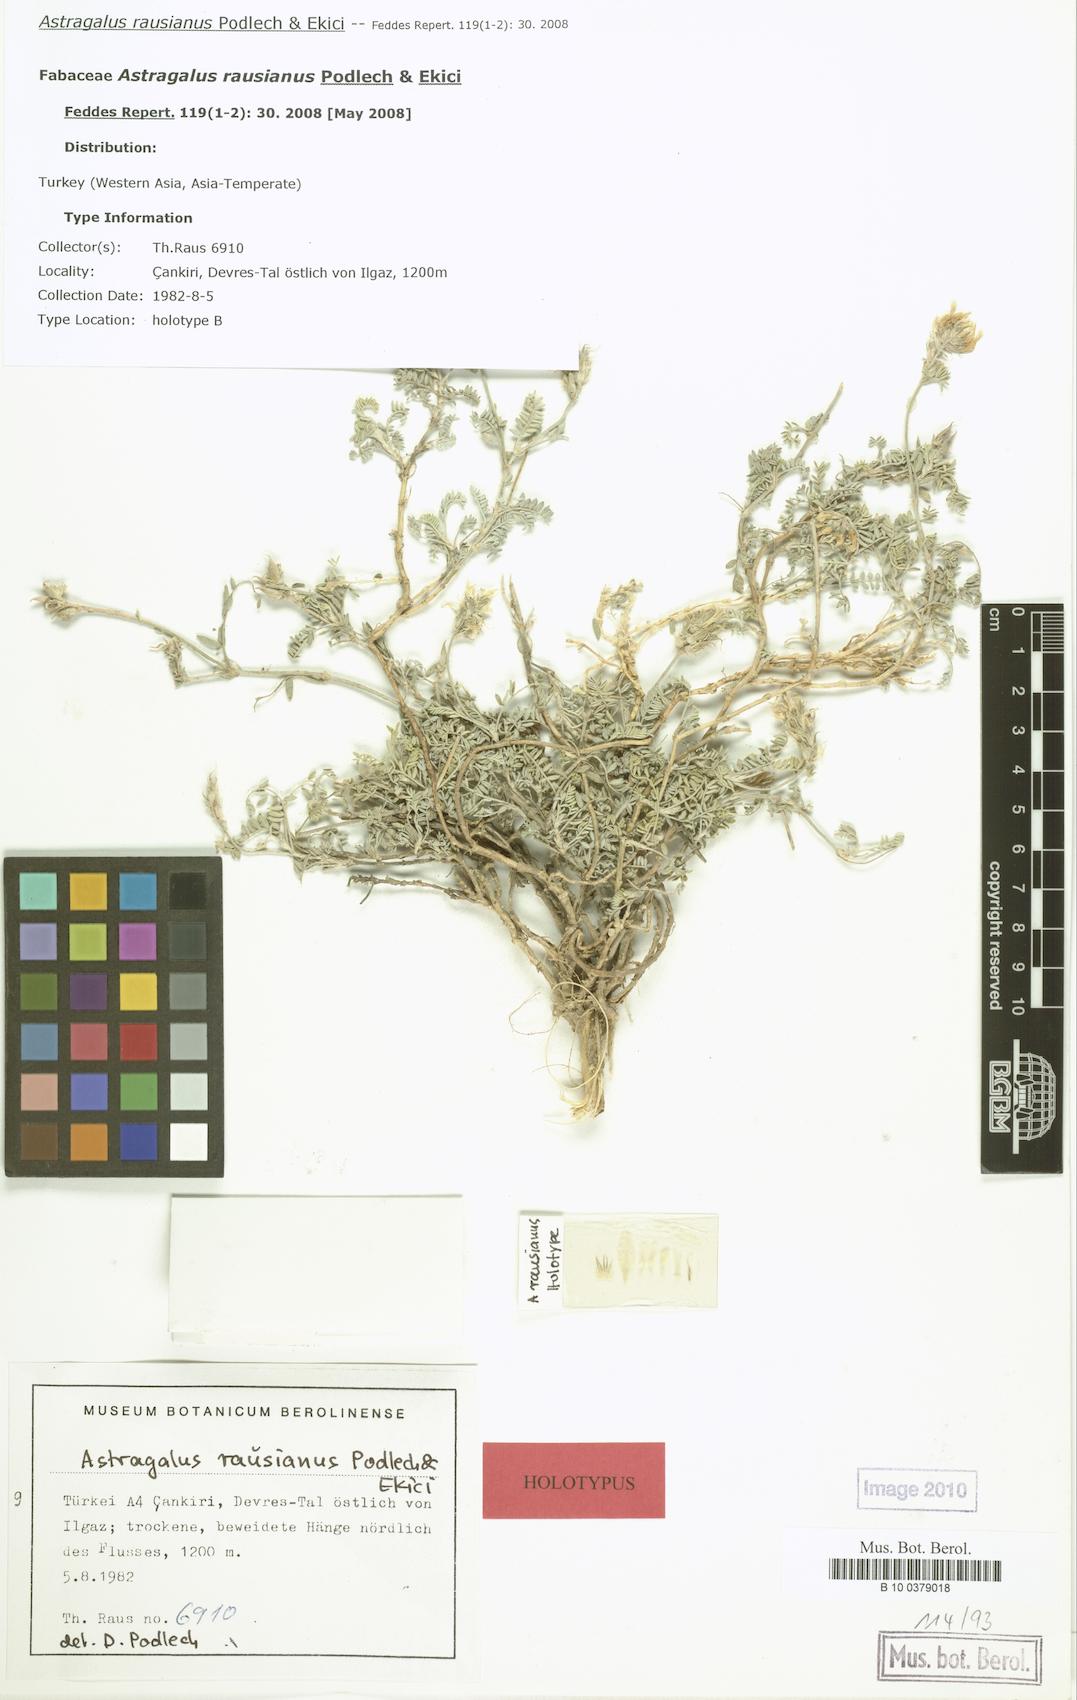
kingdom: Plantae
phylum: Tracheophyta
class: Magnoliopsida
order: Fabales
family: Fabaceae
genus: Astragalus
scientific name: Astragalus lycius
